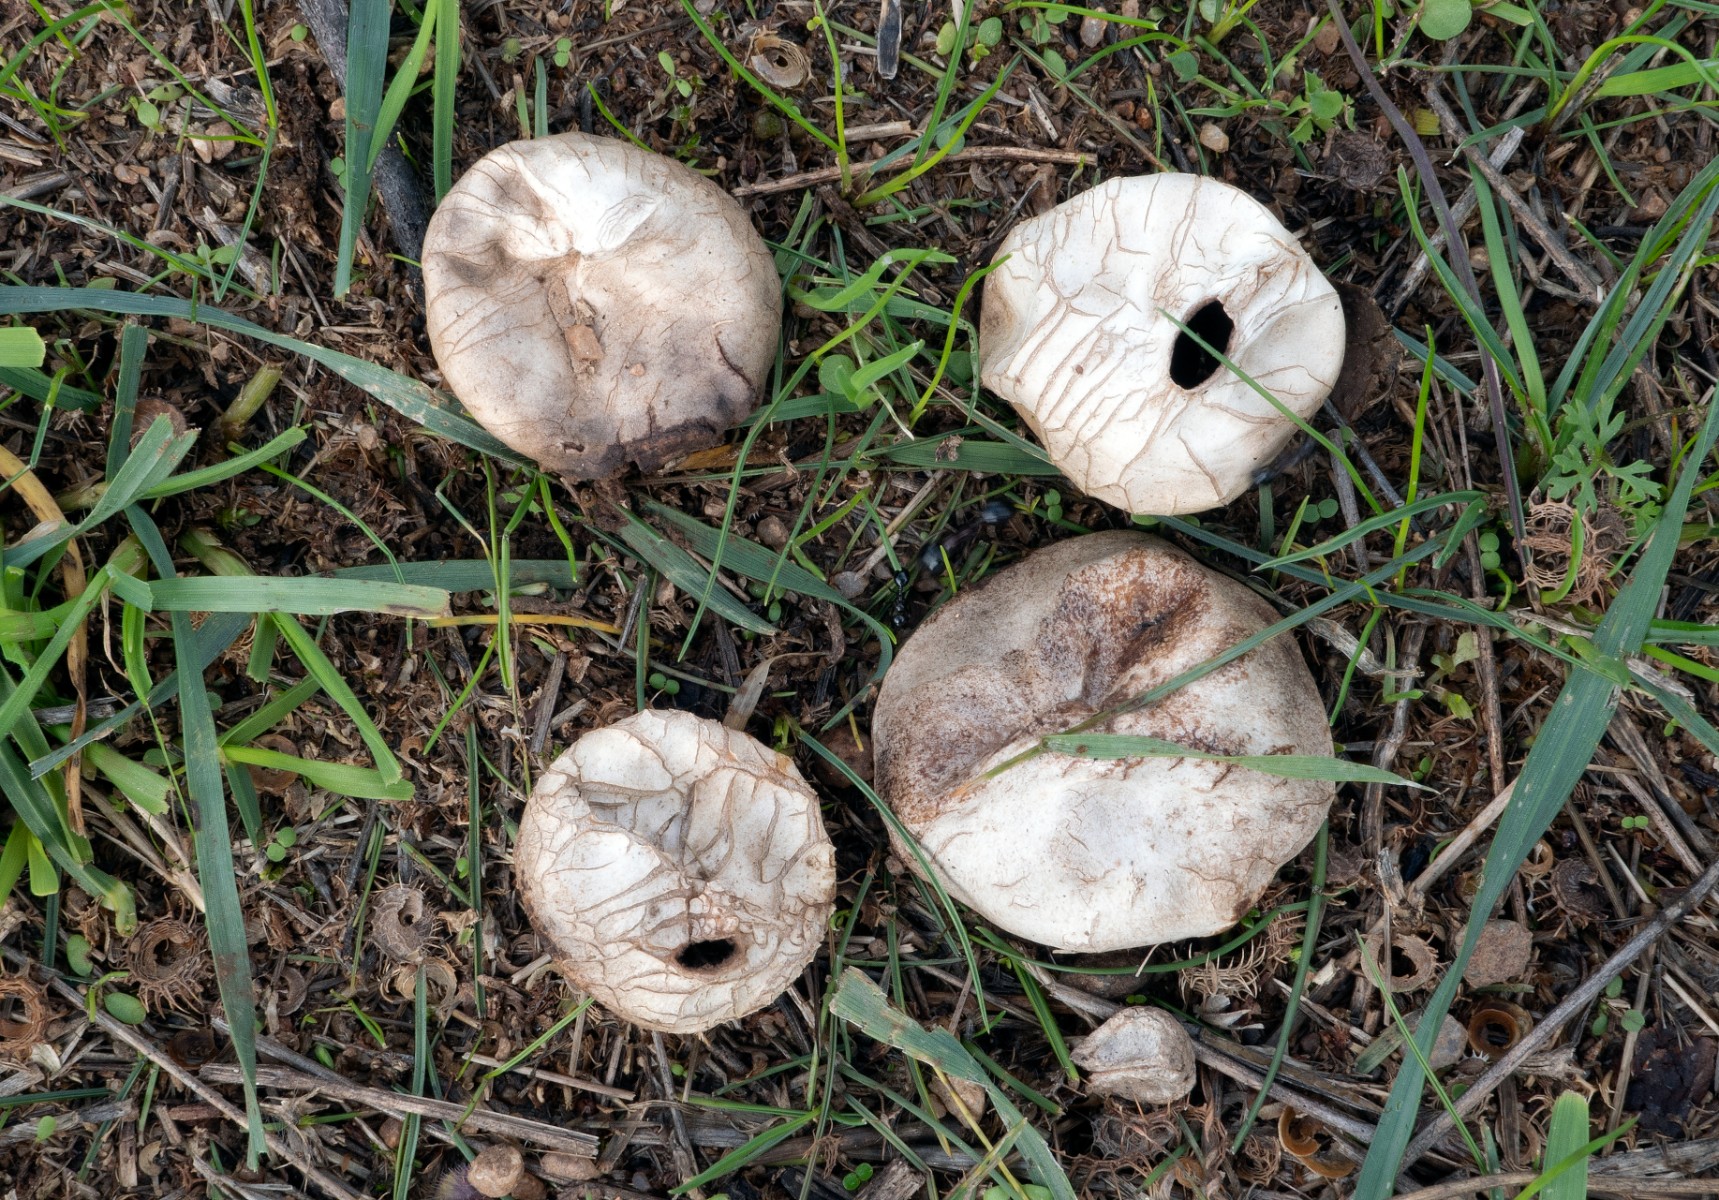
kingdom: Fungi
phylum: Basidiomycota
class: Agaricomycetes
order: Agaricales
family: Agaricaceae
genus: Disciseda
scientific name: Disciseda verrucosa
